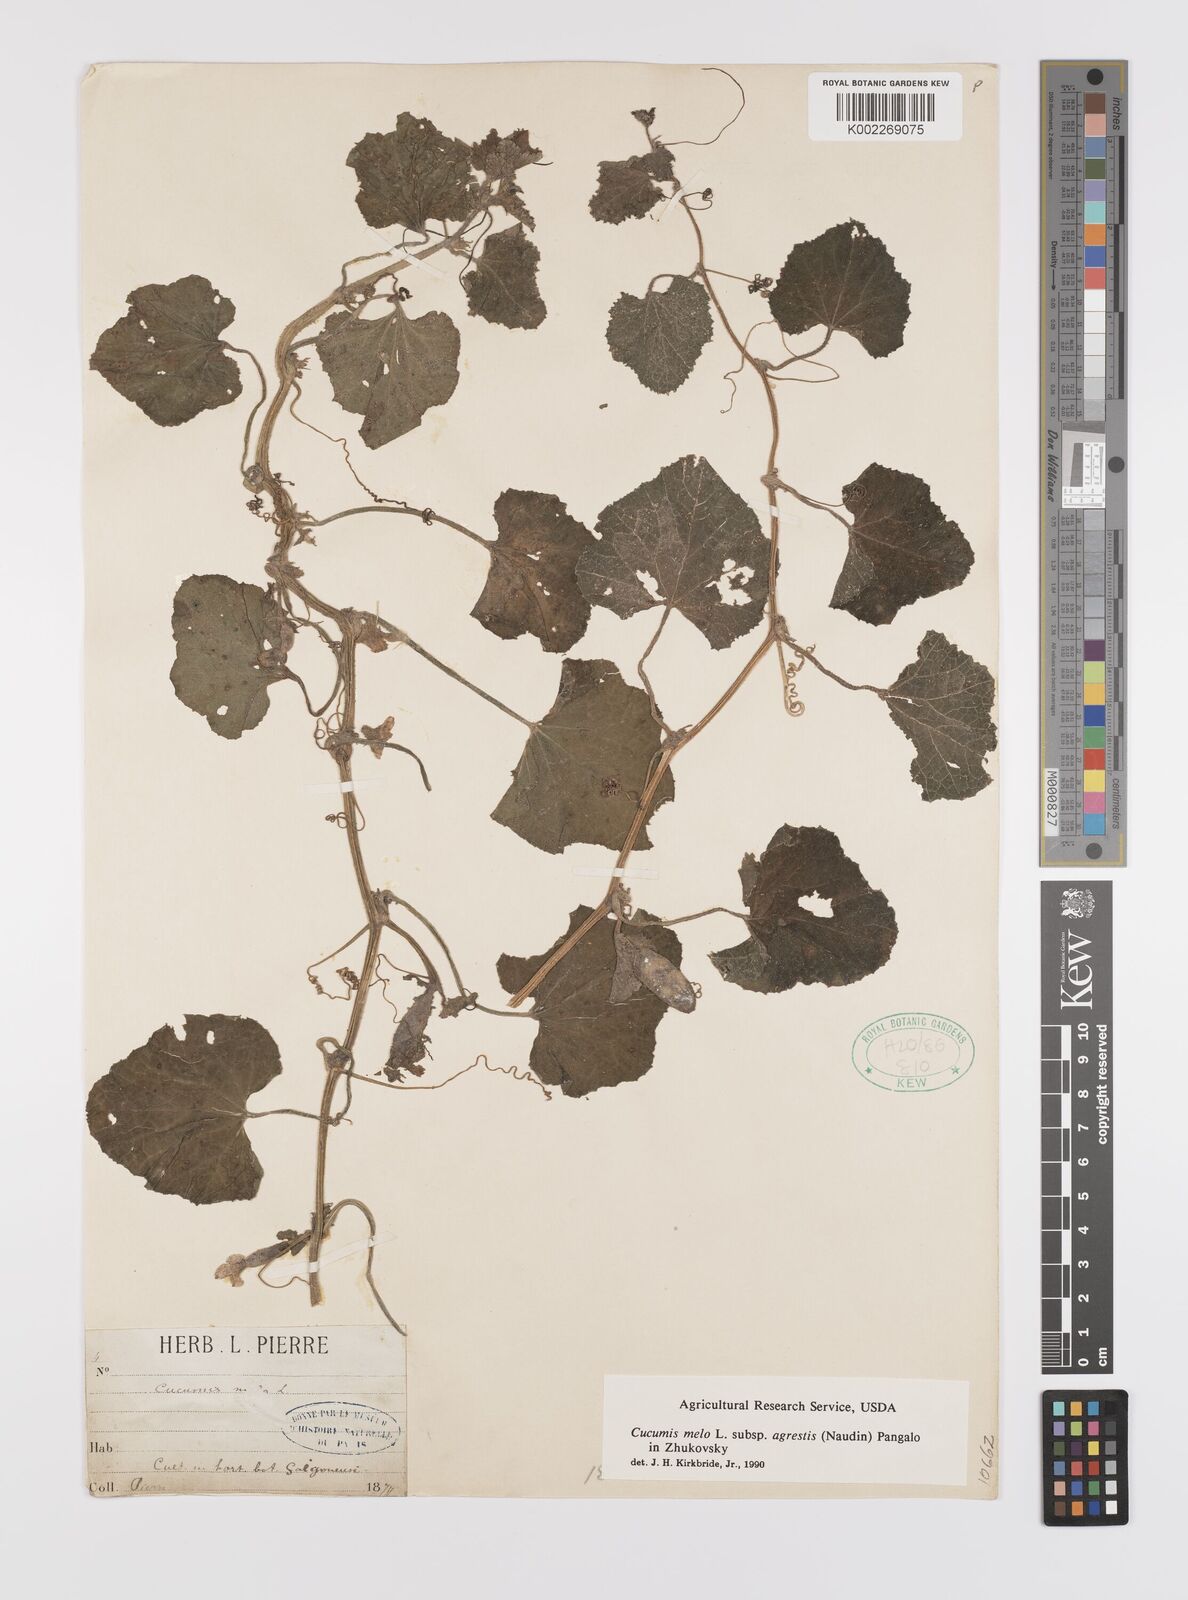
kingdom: Plantae
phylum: Tracheophyta
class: Magnoliopsida
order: Cucurbitales
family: Cucurbitaceae
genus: Cucumis
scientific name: Cucumis melo
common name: Melon
